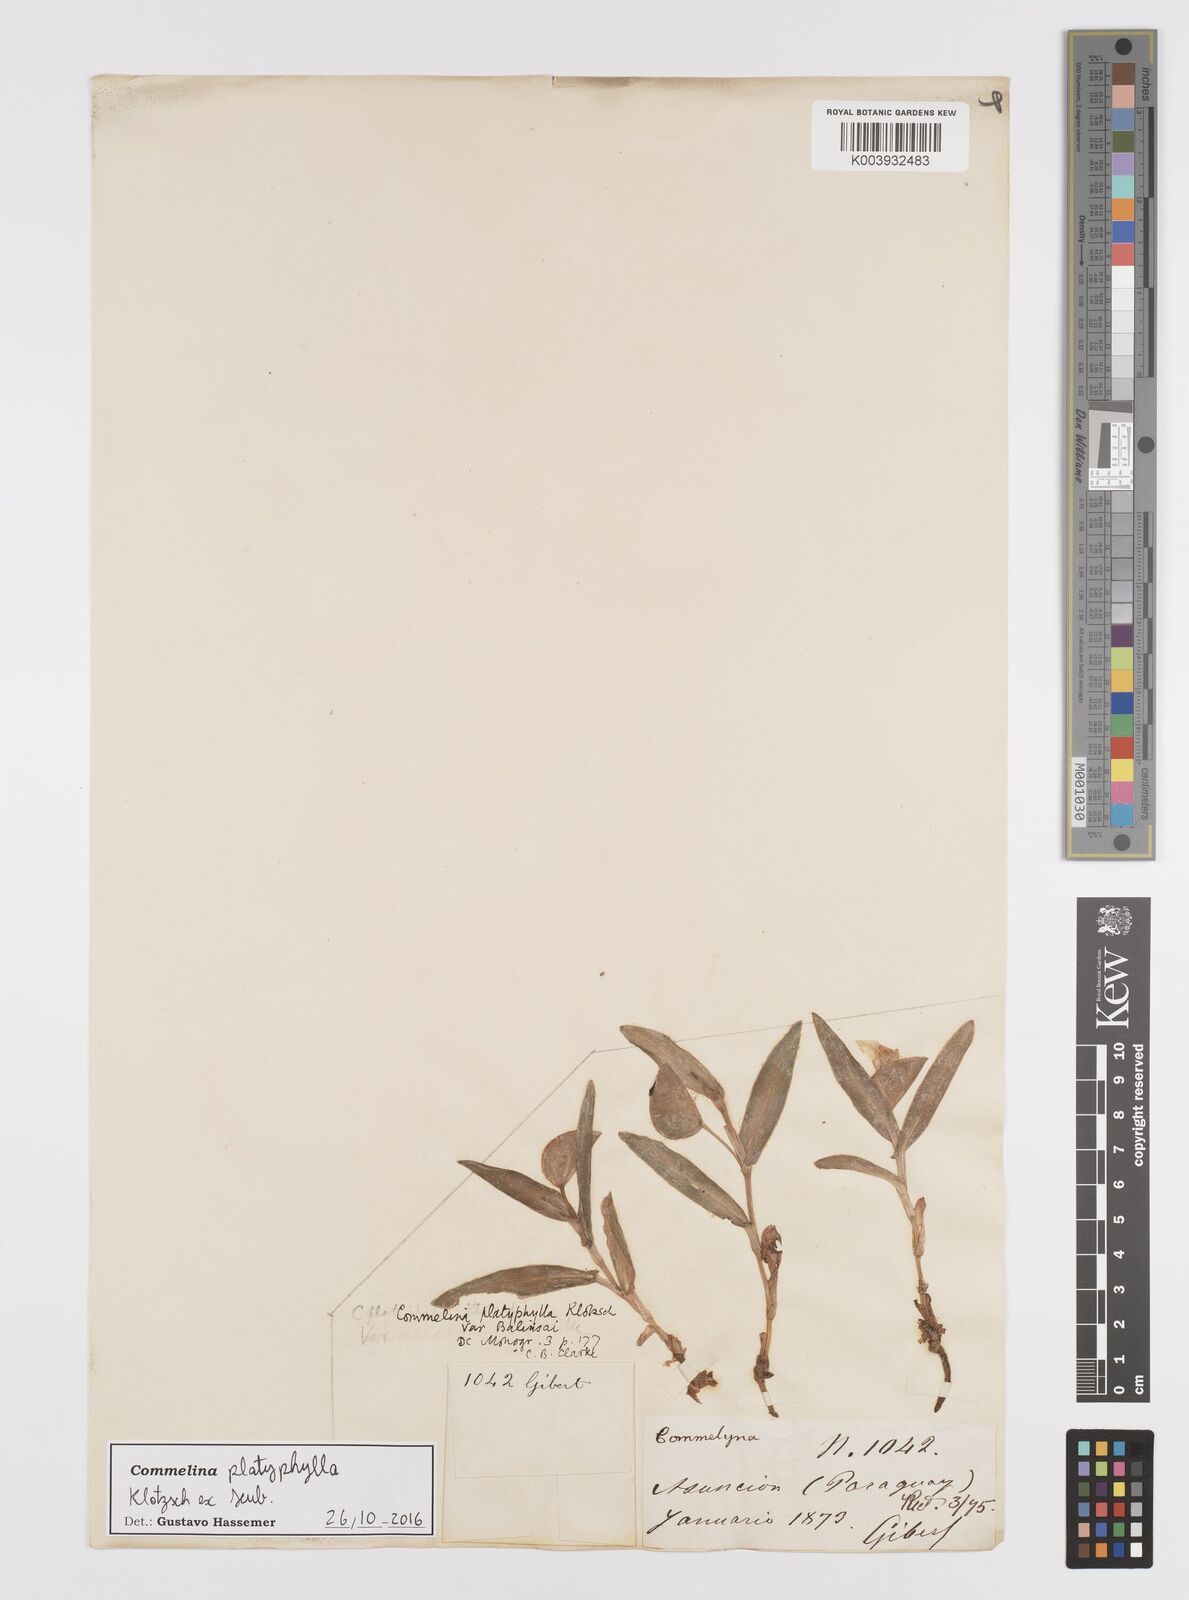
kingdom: Plantae
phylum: Tracheophyta
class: Liliopsida
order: Commelinales
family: Commelinaceae
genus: Commelina
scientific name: Commelina platyphylla
